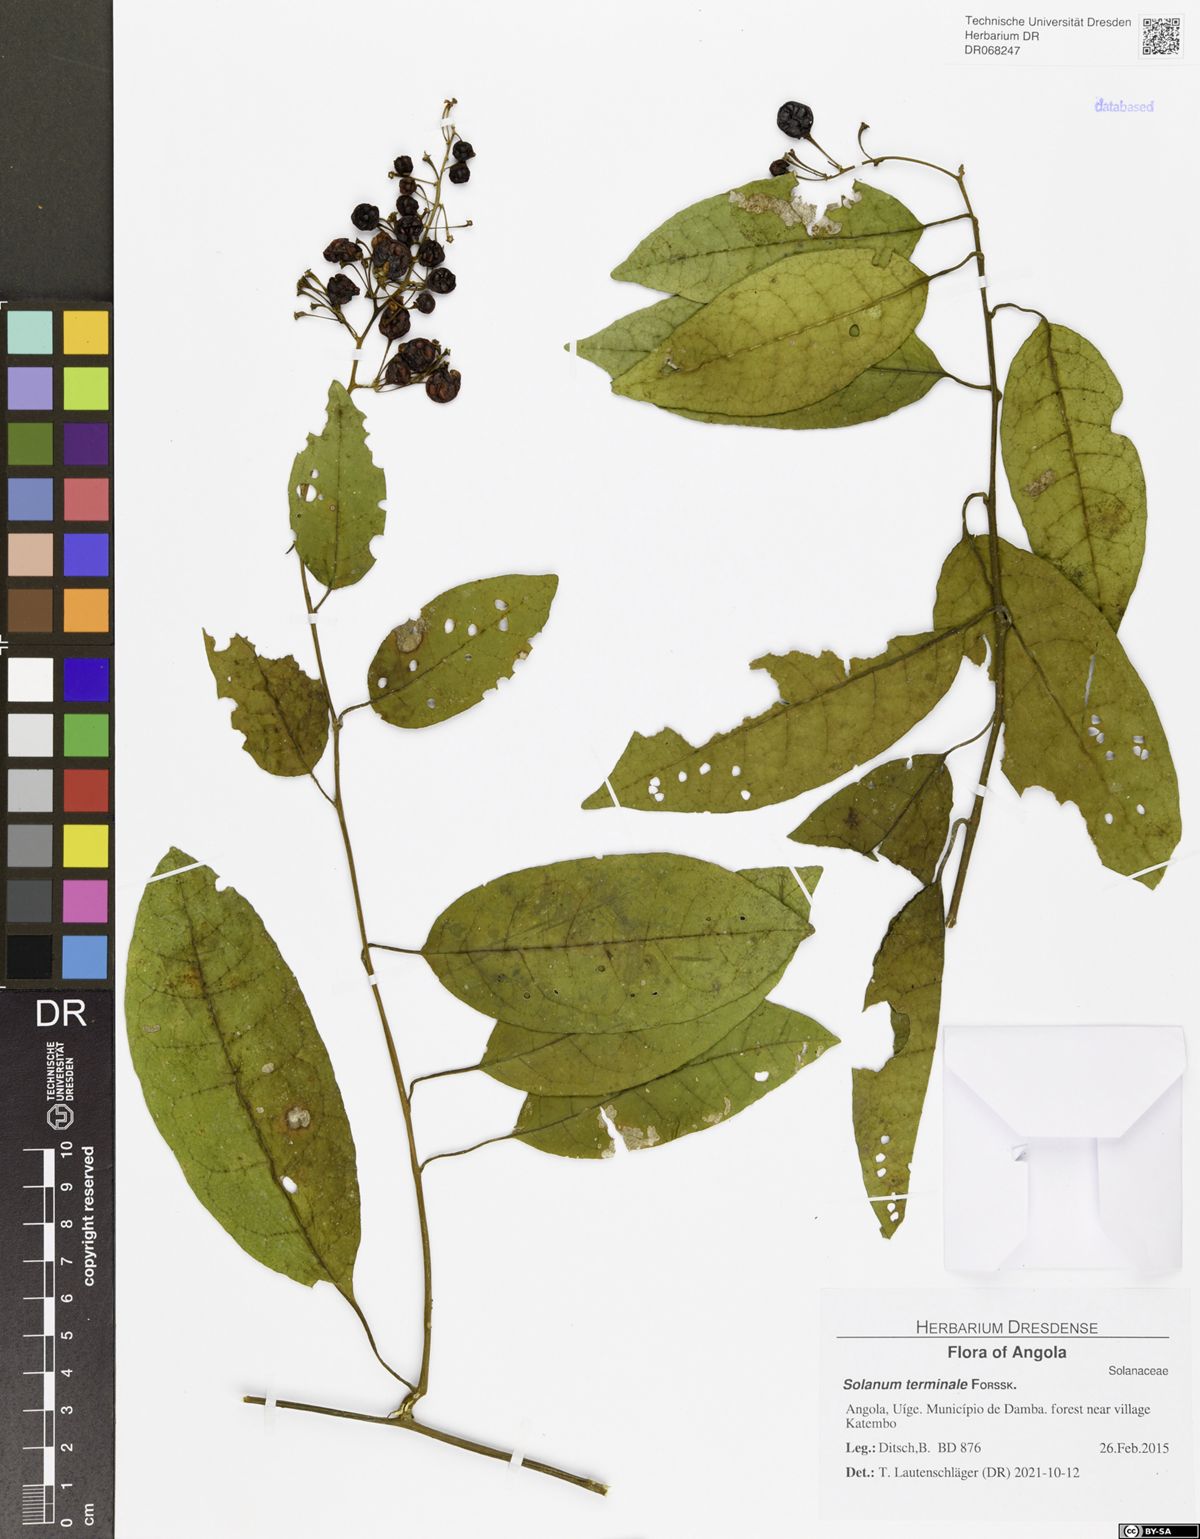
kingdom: Plantae
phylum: Tracheophyta
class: Magnoliopsida
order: Solanales
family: Solanaceae
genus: Solanum
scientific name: Solanum terminale
